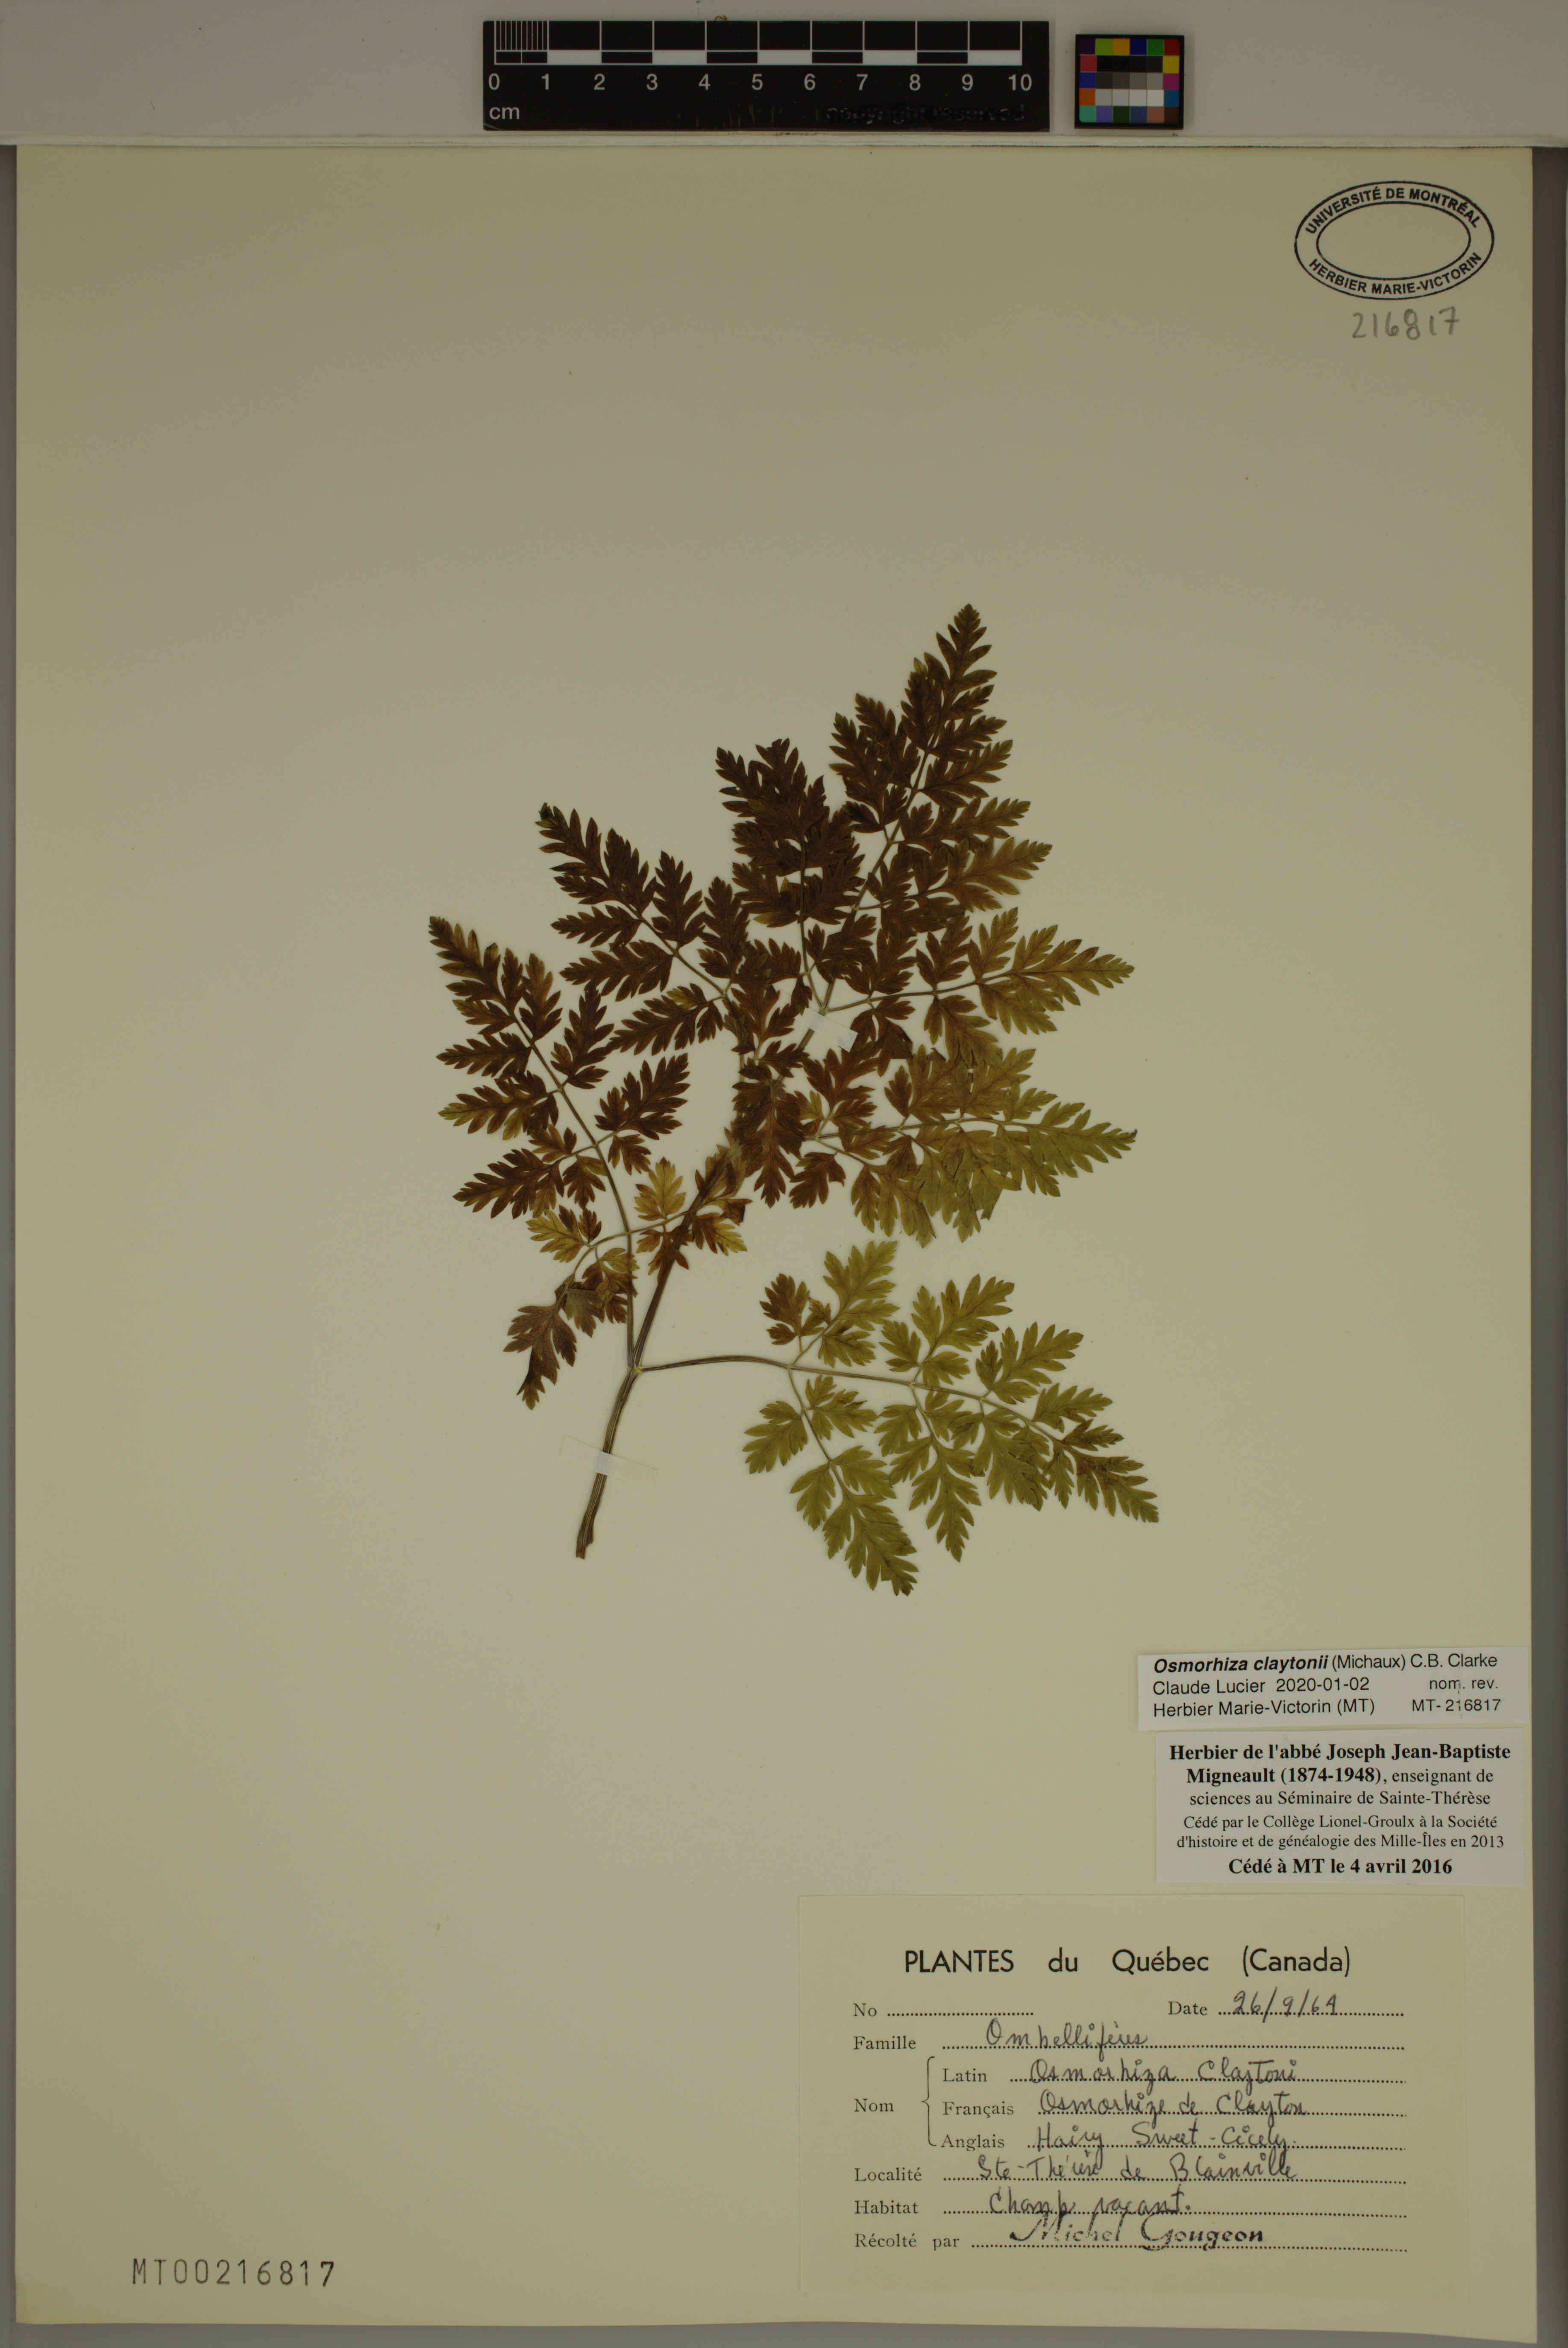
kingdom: Plantae
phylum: Tracheophyta
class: Magnoliopsida
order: Apiales
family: Apiaceae
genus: Osmorhiza
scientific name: Osmorhiza claytonii
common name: Hairy sweet cicely
